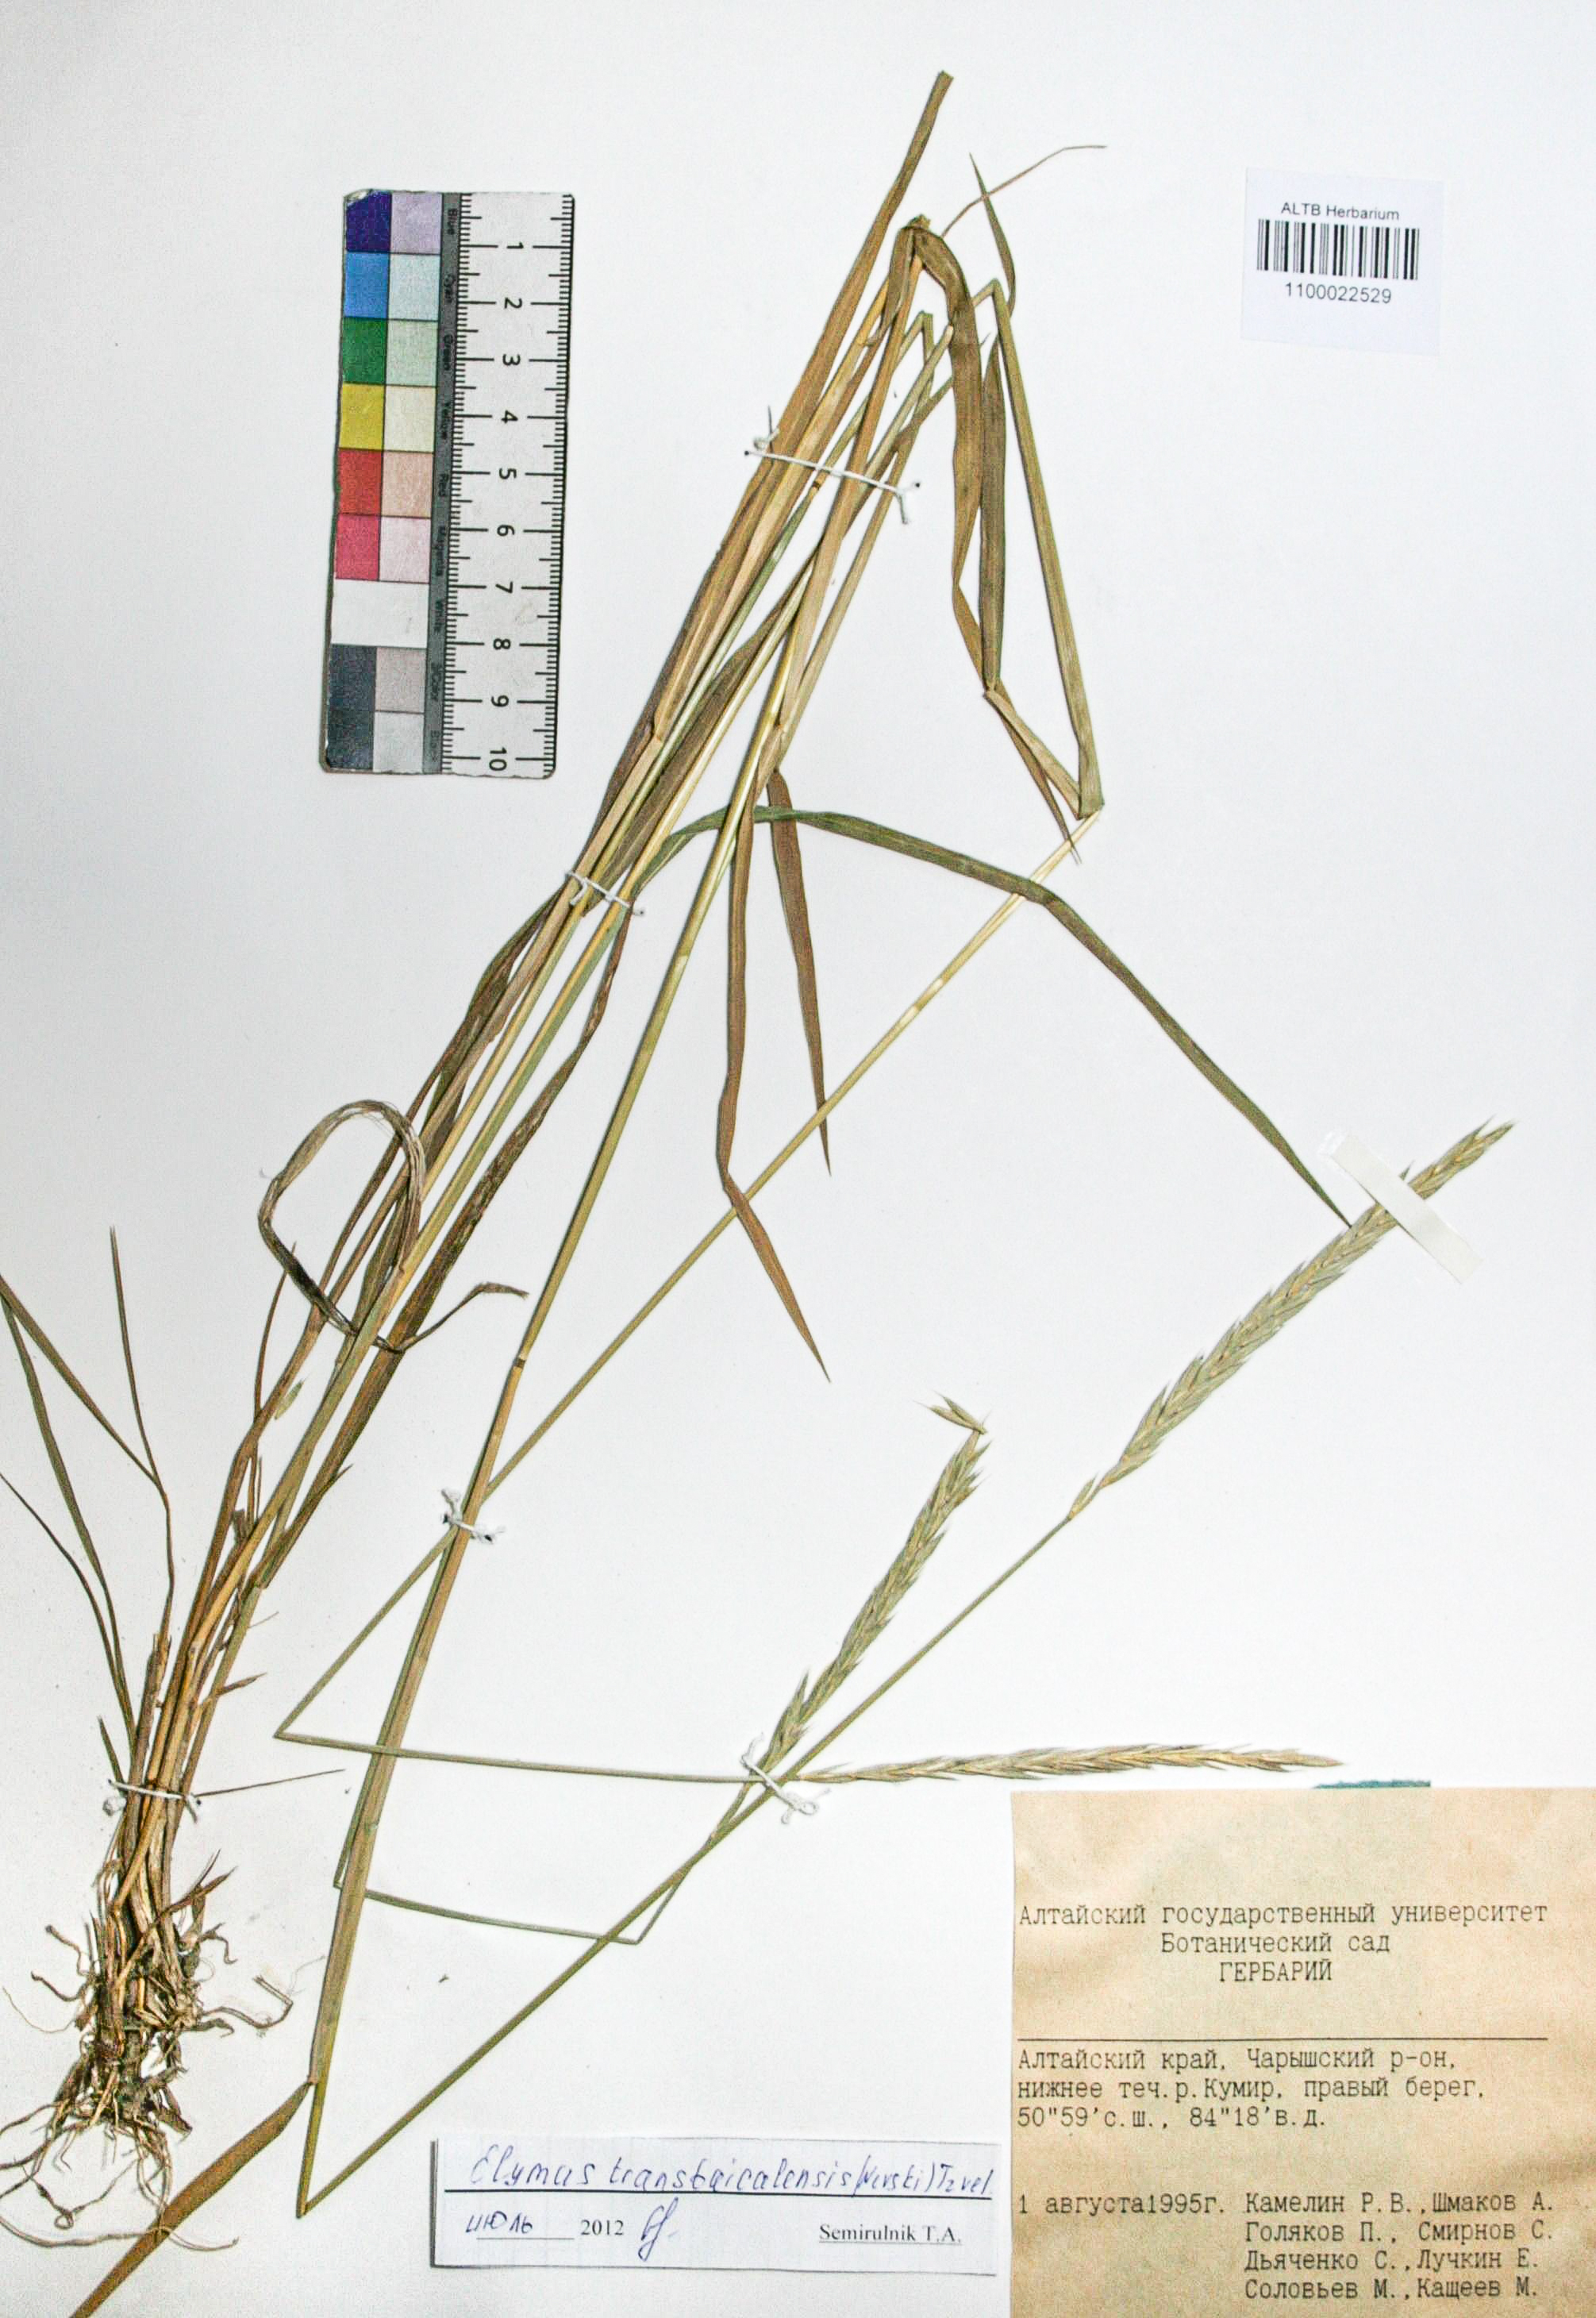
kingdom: Plantae
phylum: Tracheophyta
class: Liliopsida
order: Poales
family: Poaceae
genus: Elymus
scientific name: Elymus mutabilis
